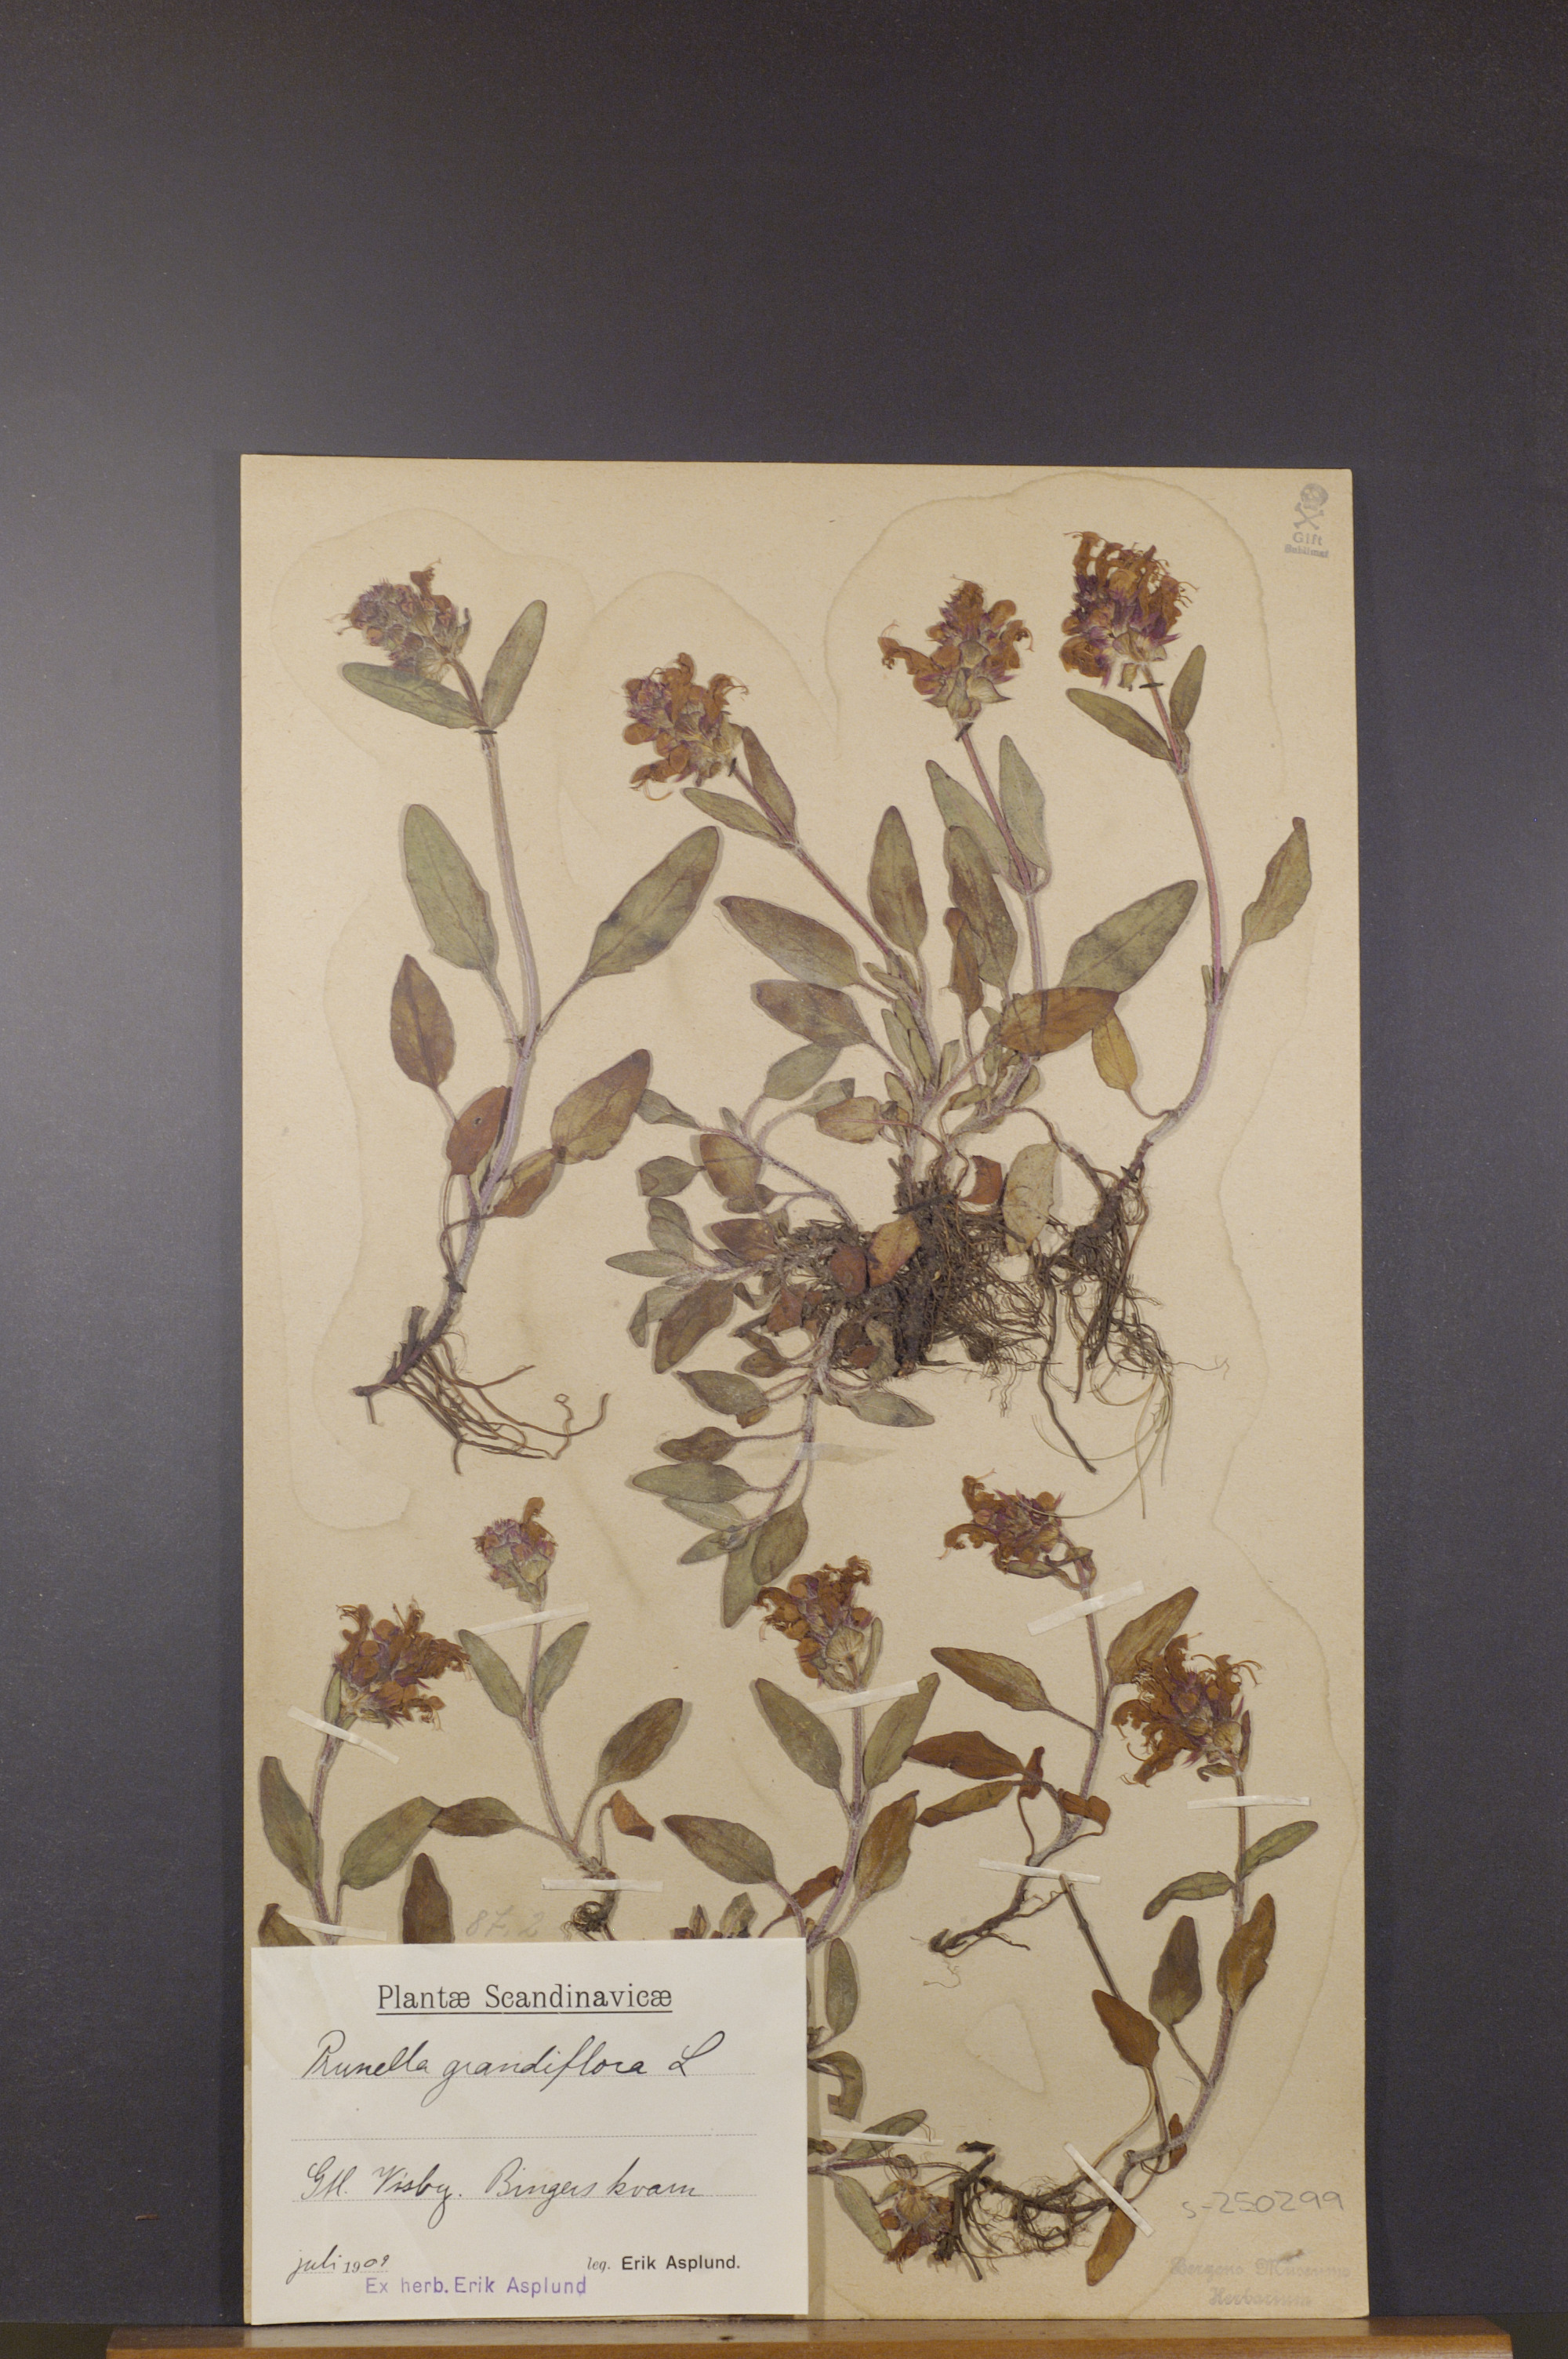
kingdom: Plantae
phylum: Tracheophyta
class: Magnoliopsida
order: Lamiales
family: Lamiaceae
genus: Prunella
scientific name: Prunella grandiflora
